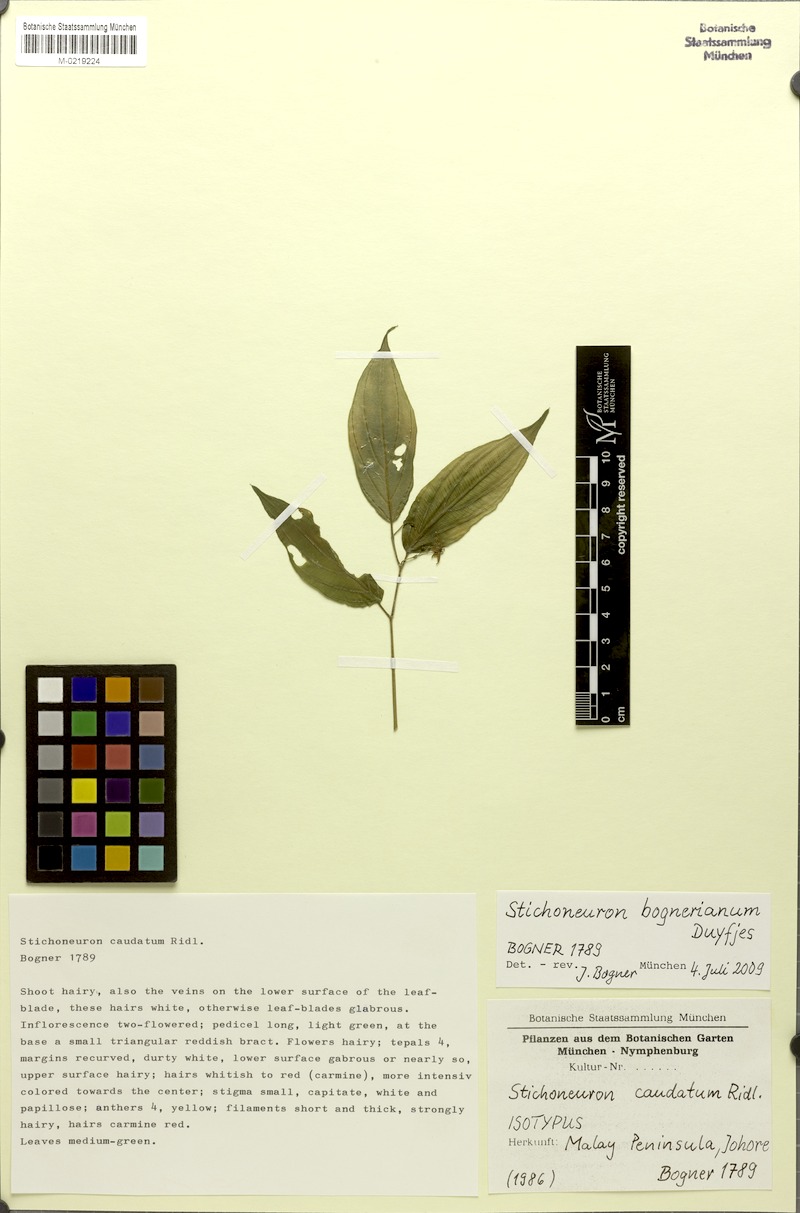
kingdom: Plantae
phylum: Tracheophyta
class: Liliopsida
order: Pandanales
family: Stemonaceae
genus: Stichoneuron
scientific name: Stichoneuron bognerianum
